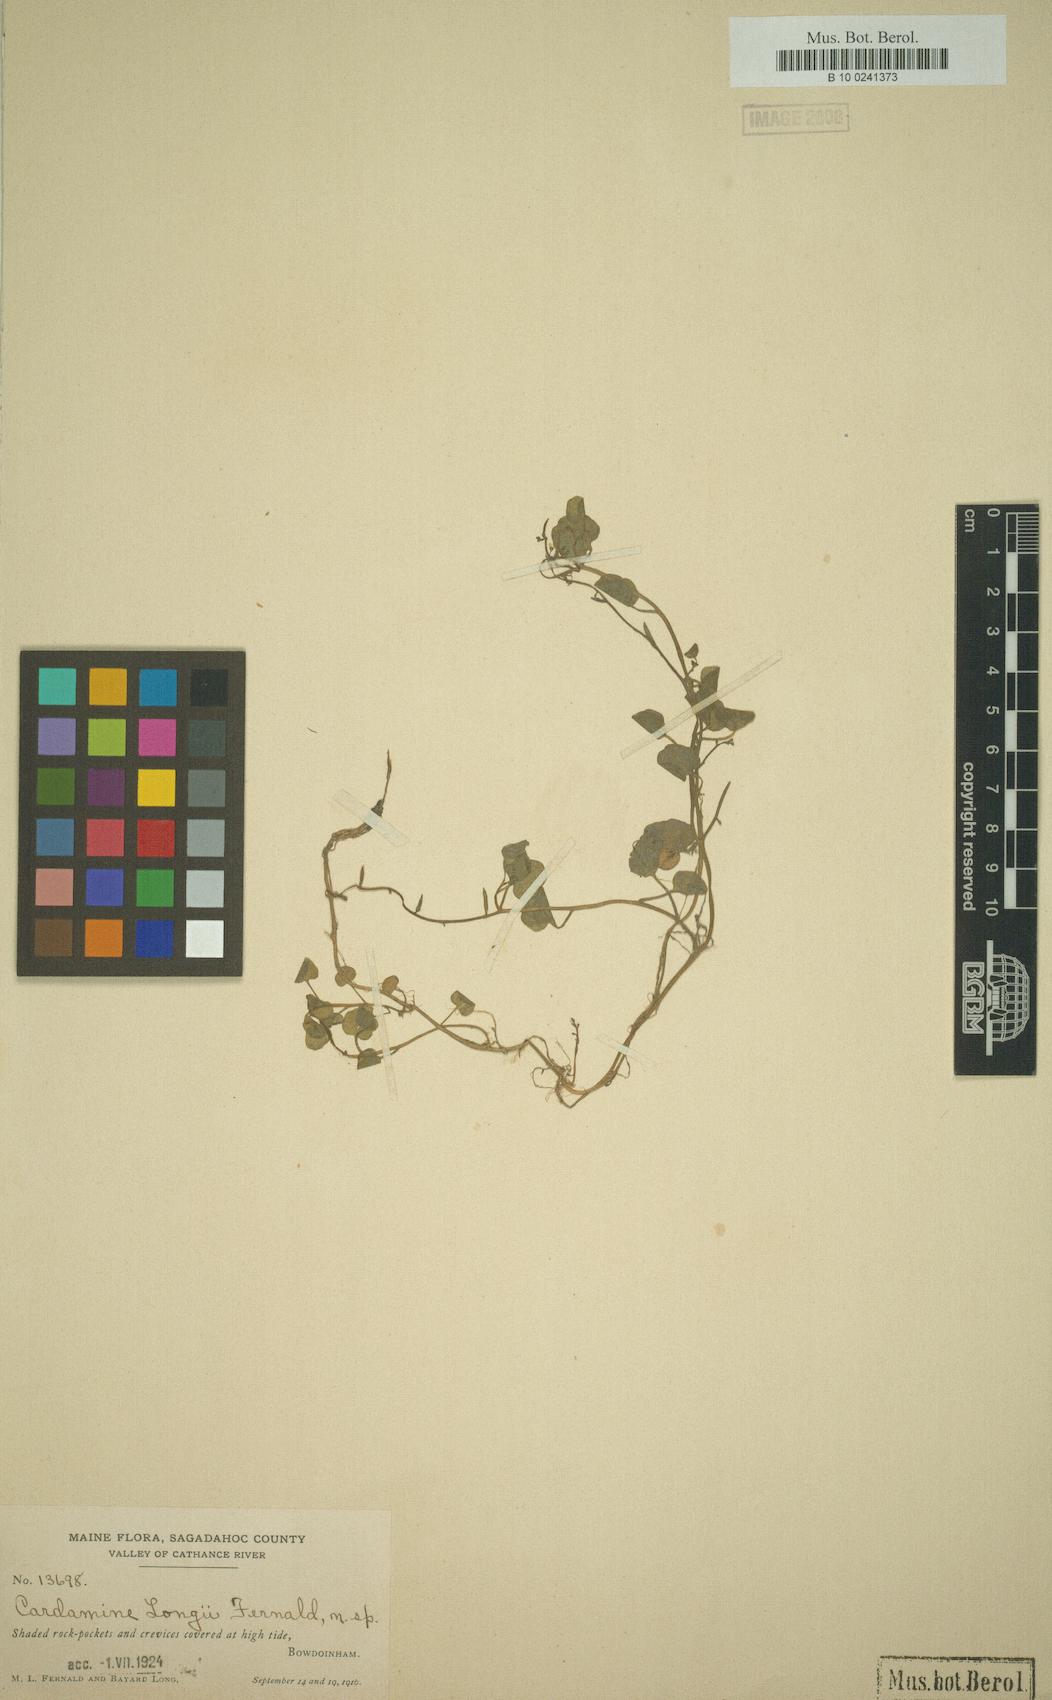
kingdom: Plantae
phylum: Tracheophyta
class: Magnoliopsida
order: Brassicales
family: Brassicaceae
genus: Cardamine
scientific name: Cardamine longii
